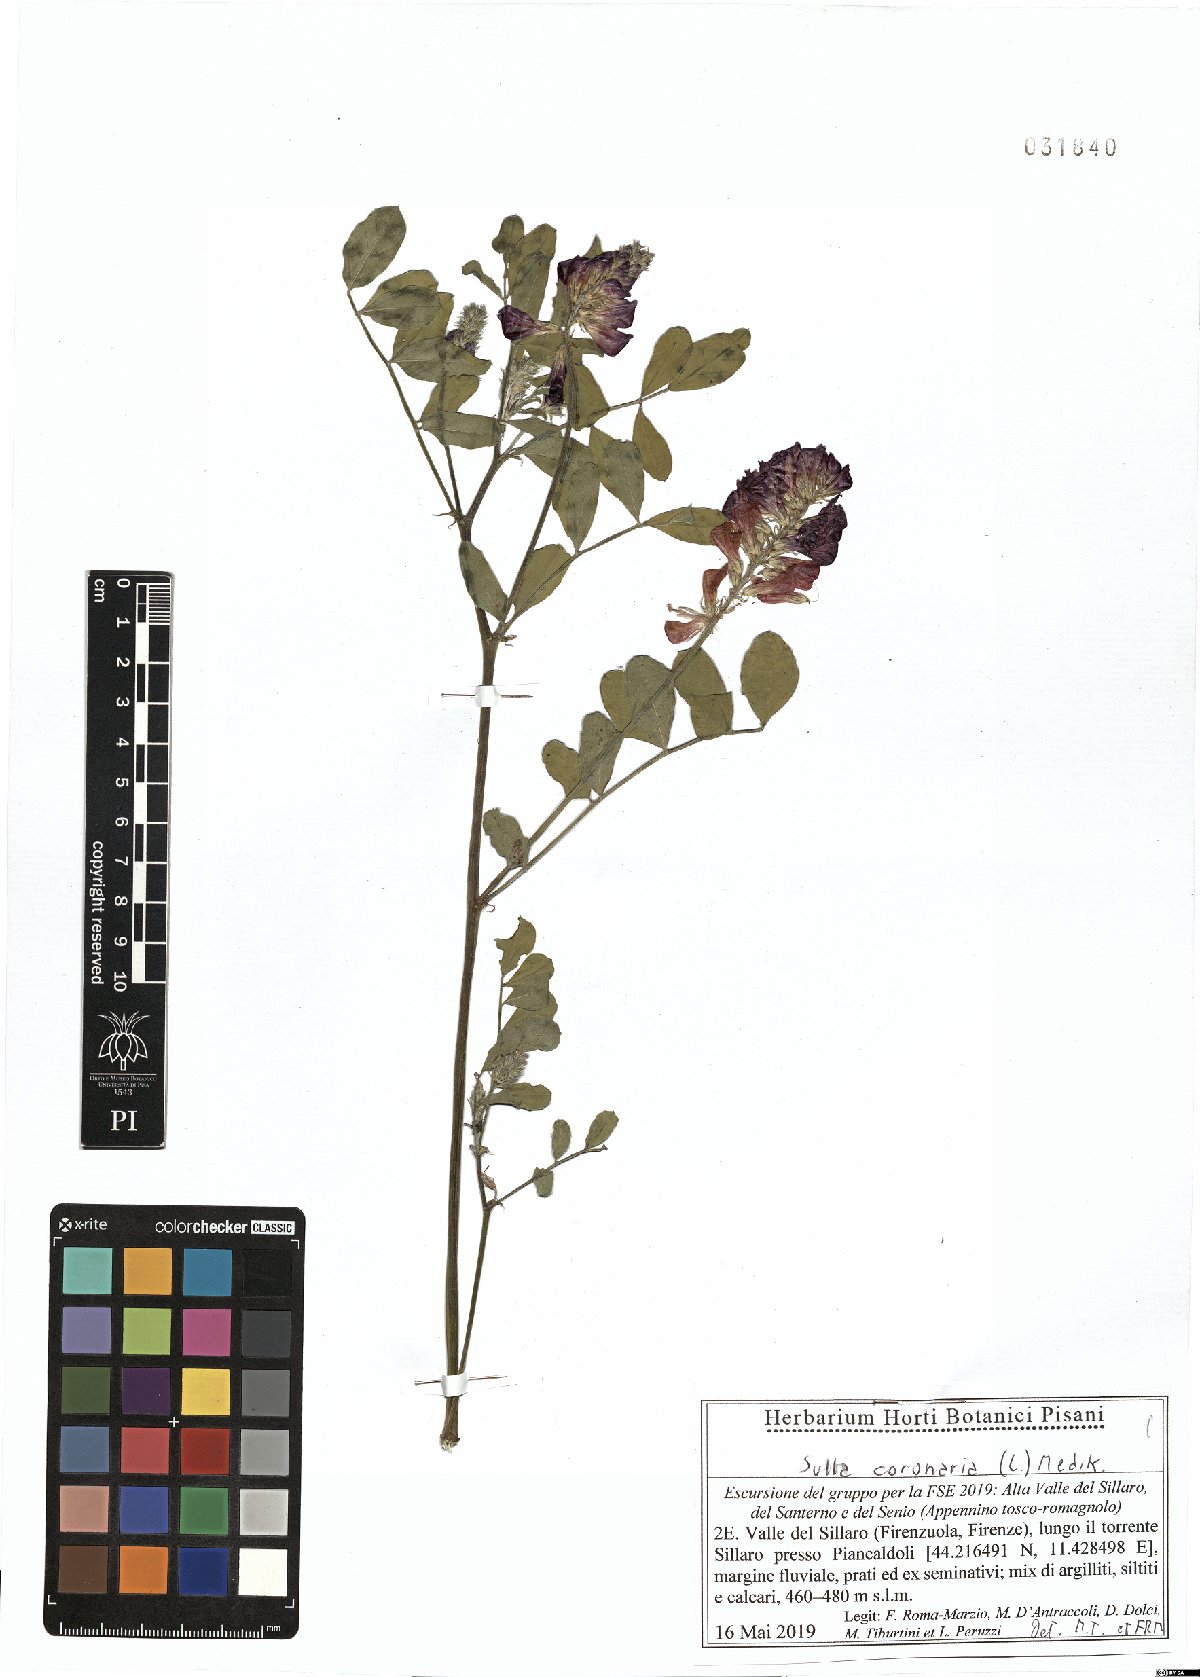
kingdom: Plantae
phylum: Tracheophyta
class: Magnoliopsida
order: Fabales
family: Fabaceae
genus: Sulla
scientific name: Sulla coronaria
